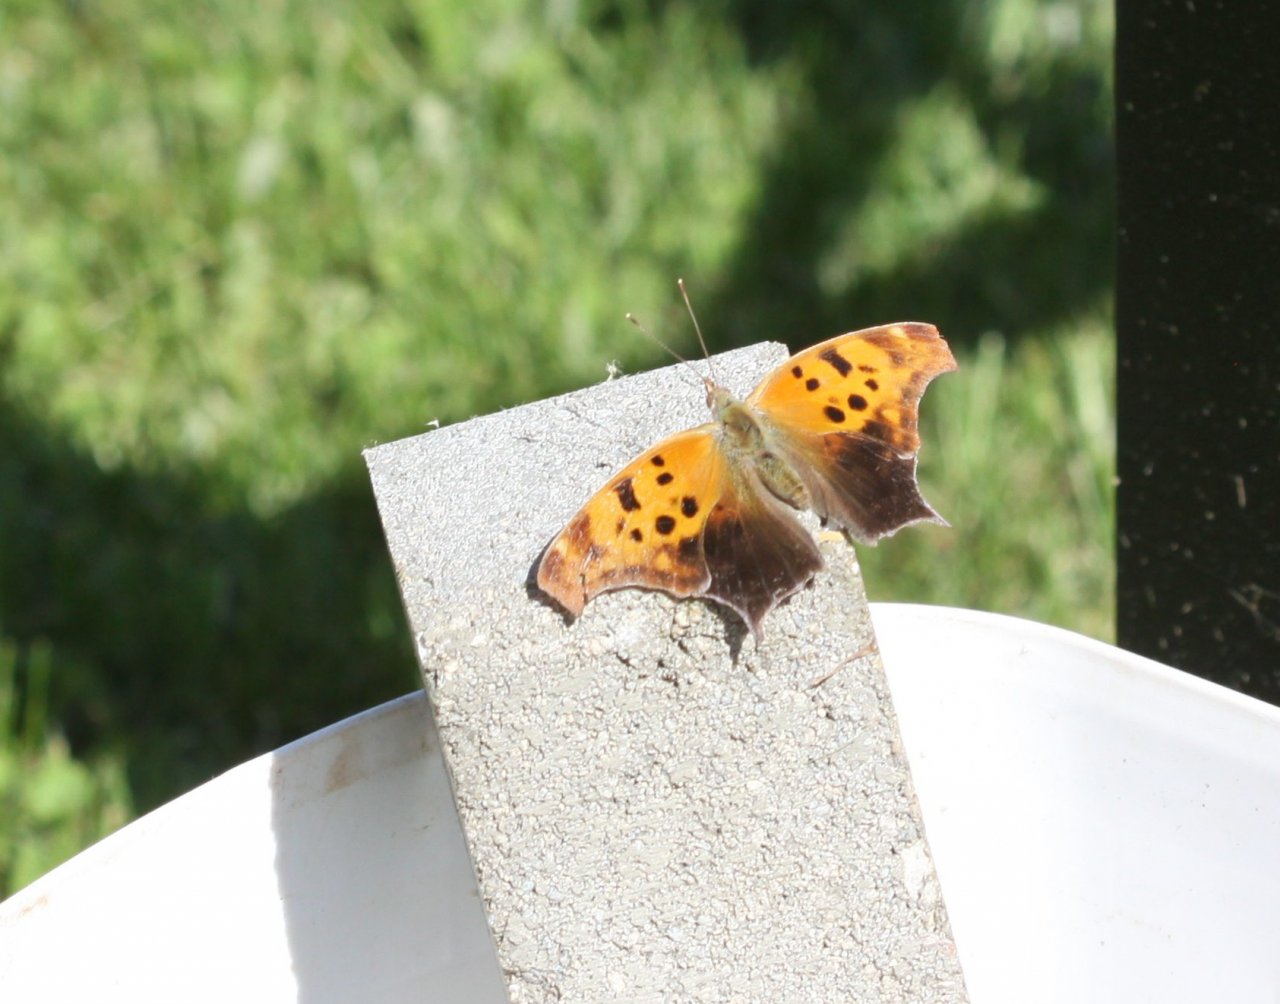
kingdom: Animalia
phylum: Arthropoda
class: Insecta
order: Lepidoptera
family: Nymphalidae
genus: Polygonia
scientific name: Polygonia interrogationis
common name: Question Mark
